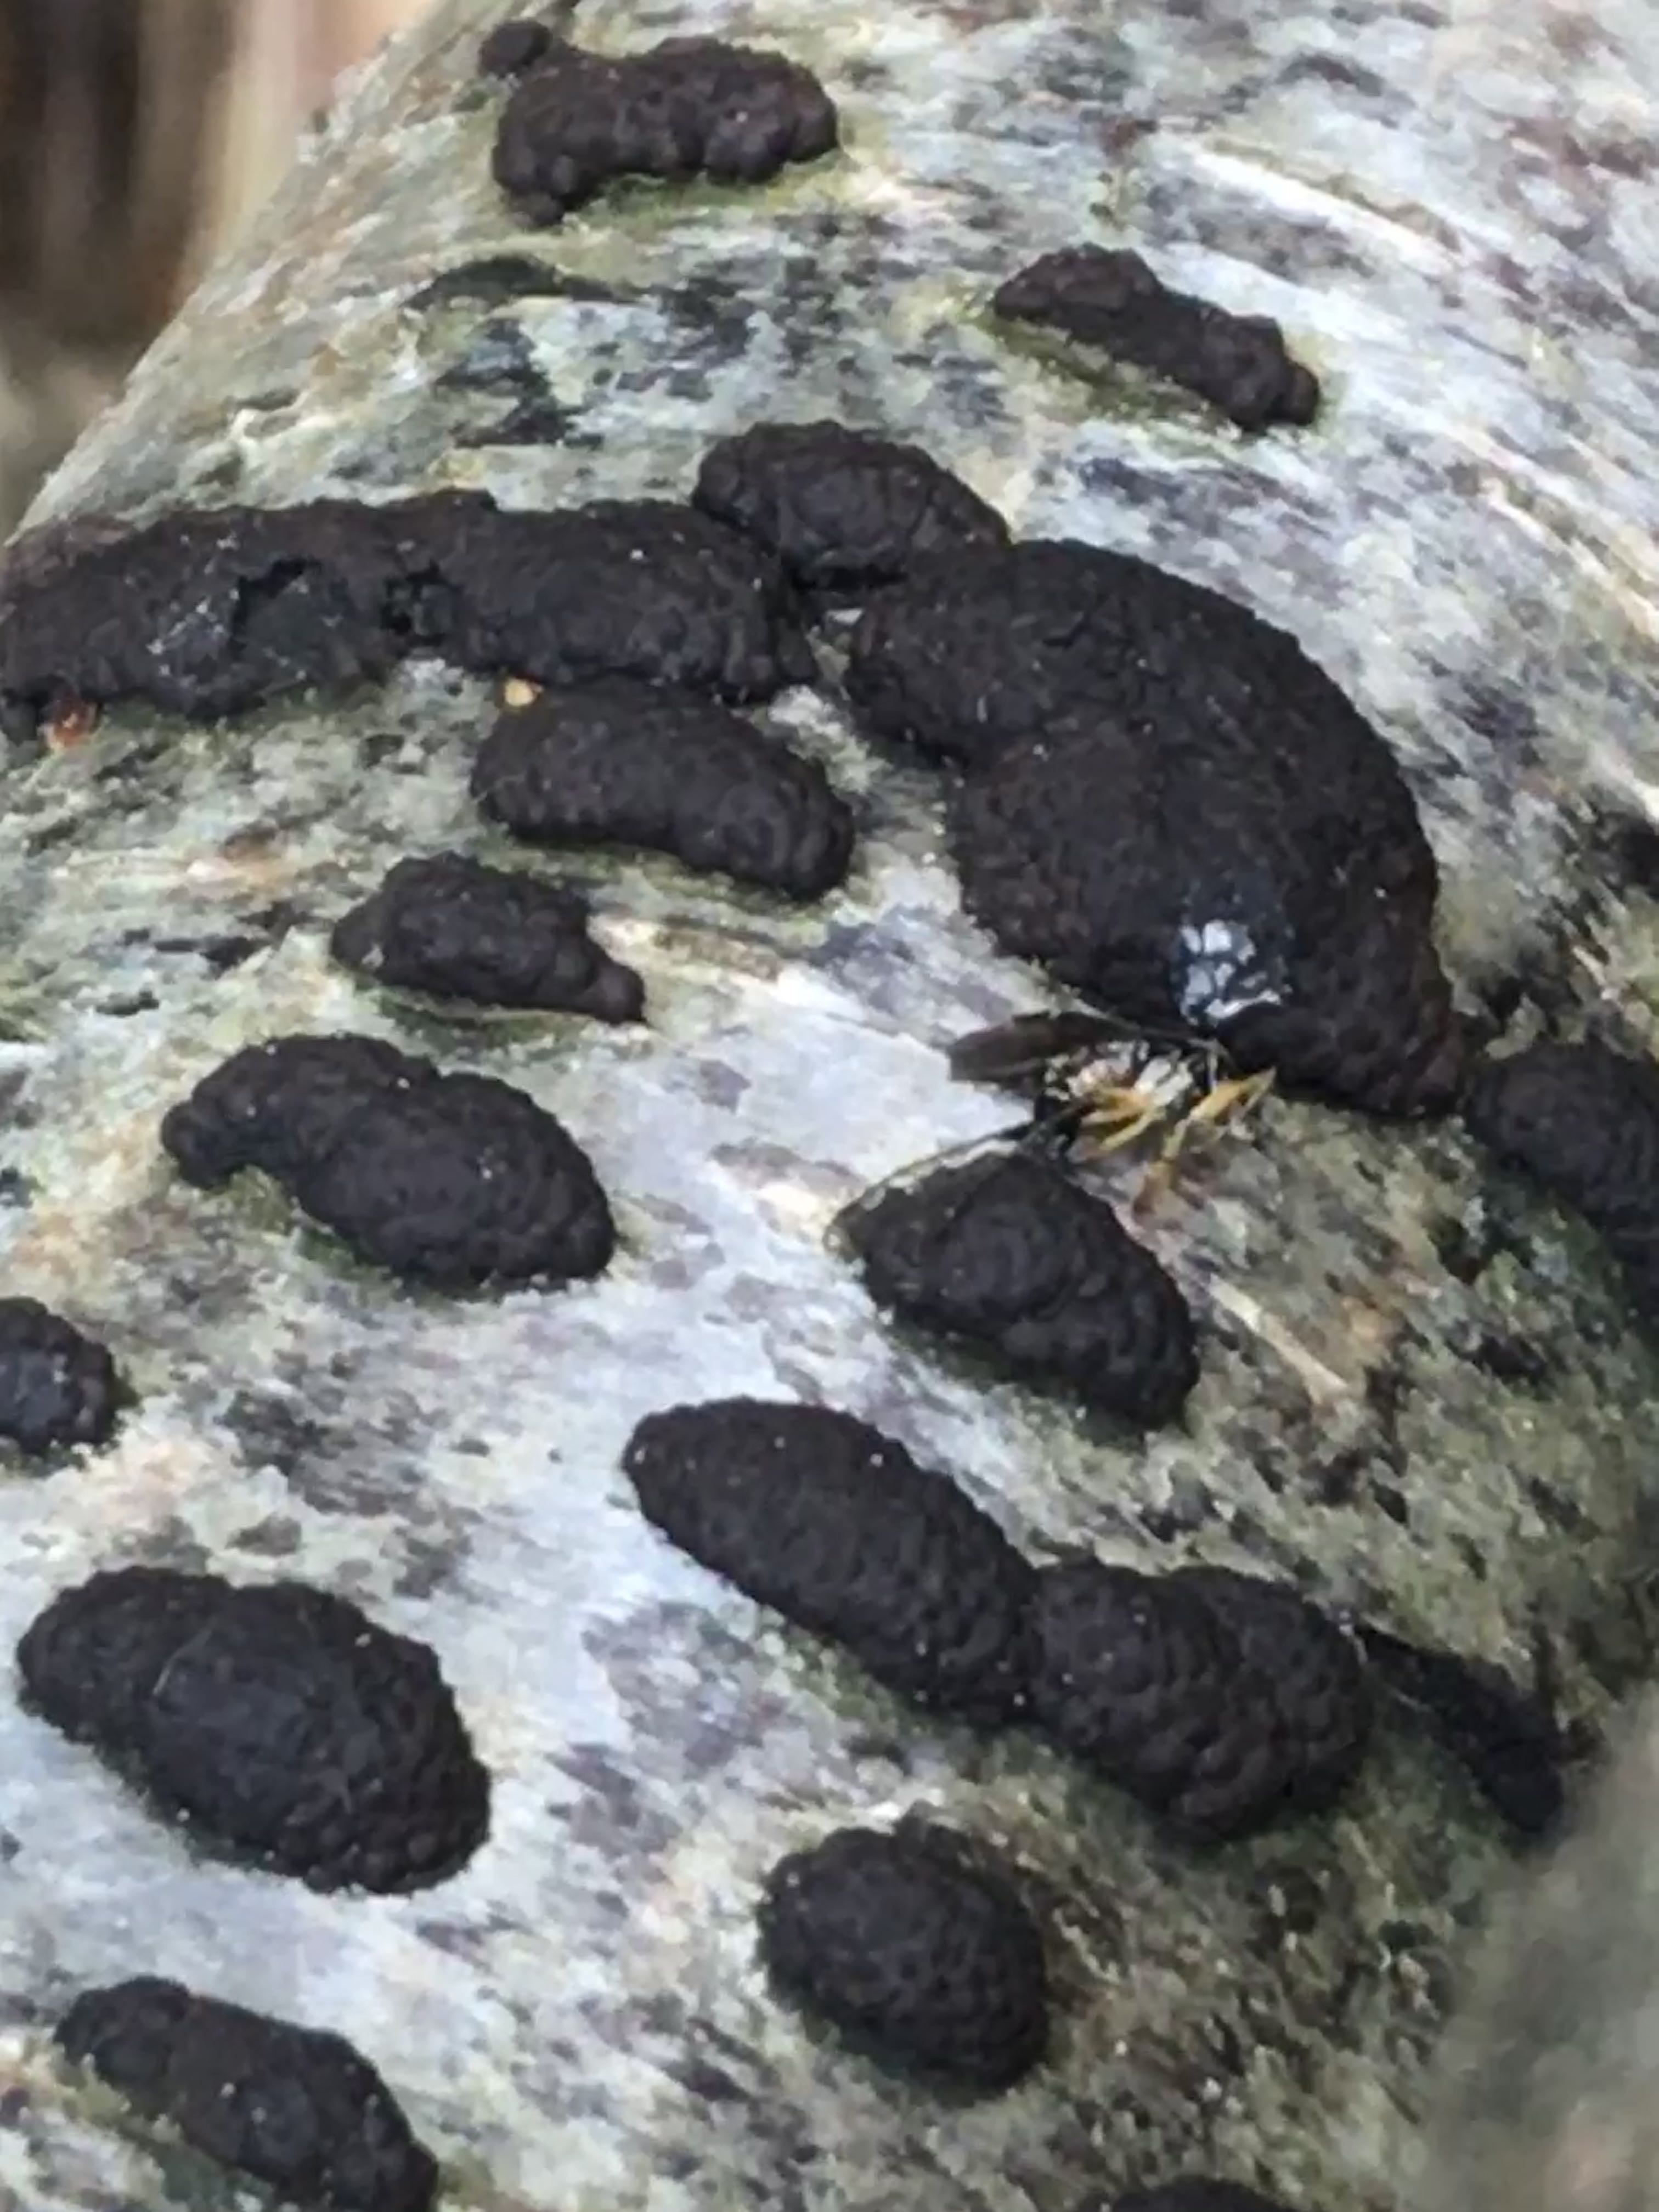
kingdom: Fungi
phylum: Ascomycota
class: Sordariomycetes
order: Xylariales
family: Hypoxylaceae
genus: Jackrogersella
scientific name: Jackrogersella multiformis
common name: foranderlig kulbær
